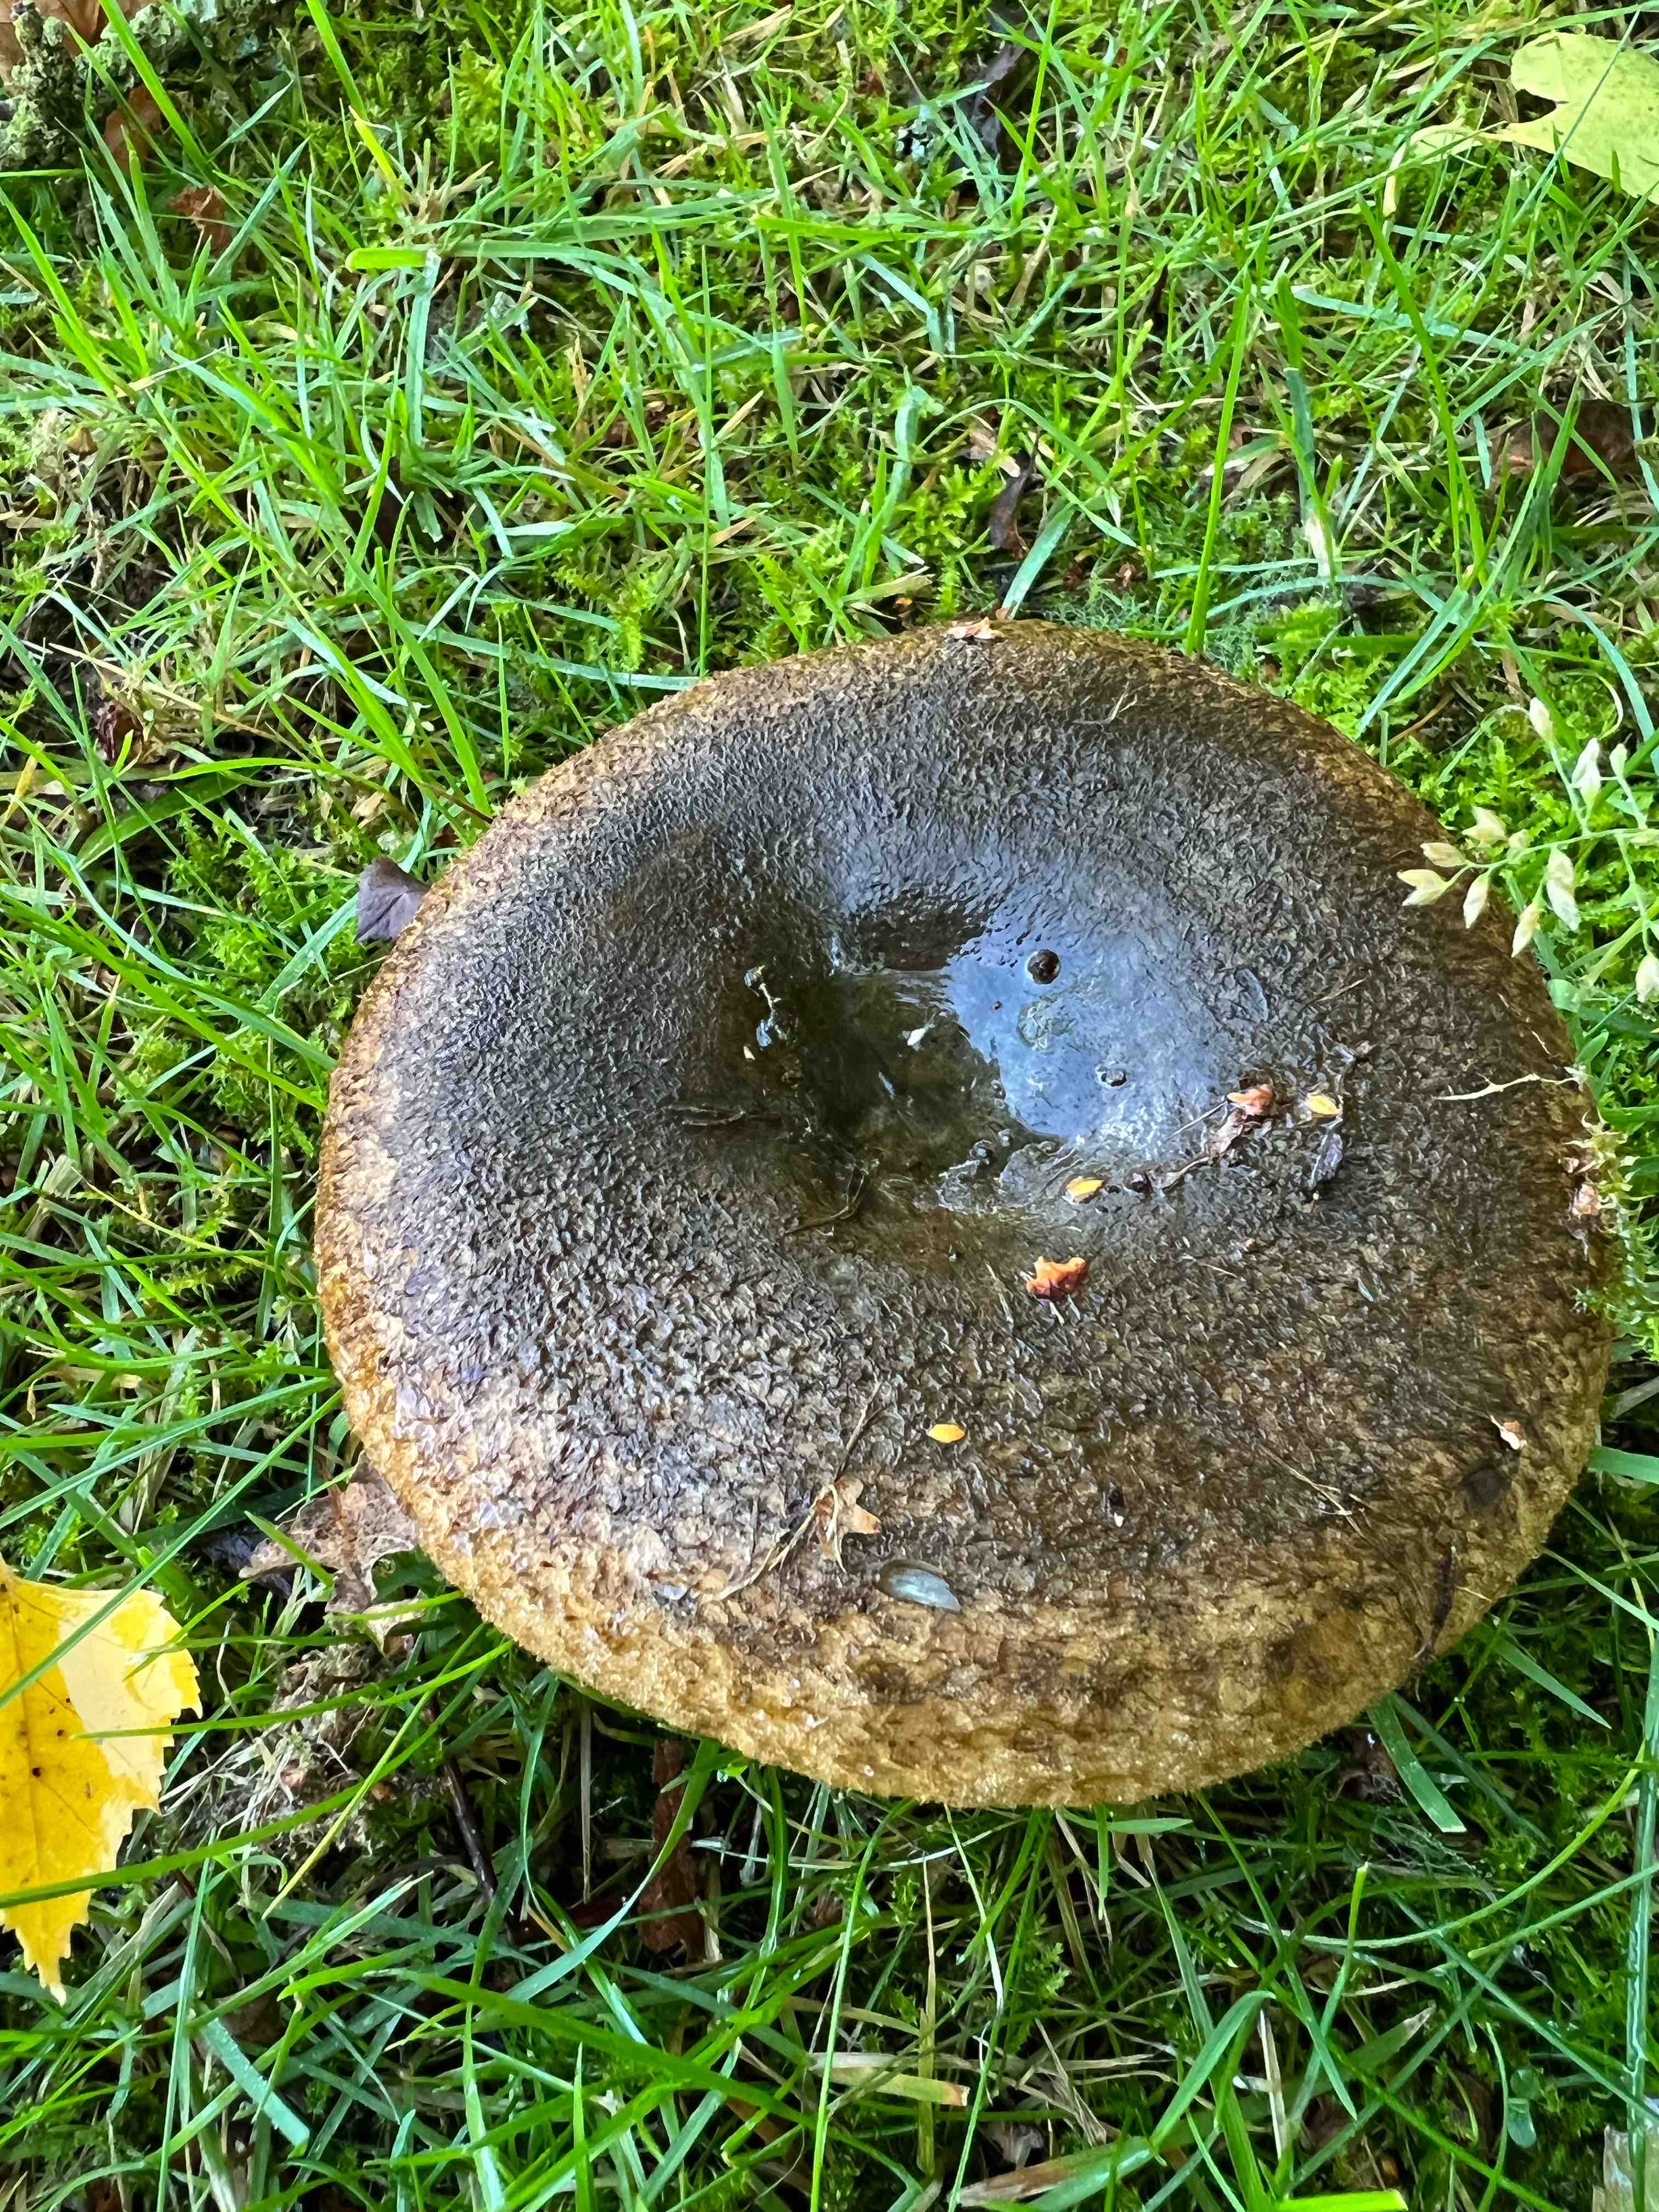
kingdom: Fungi
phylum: Basidiomycota
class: Agaricomycetes
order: Russulales
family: Russulaceae
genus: Lactarius
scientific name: Lactarius necator
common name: manddraber-mælkehat
